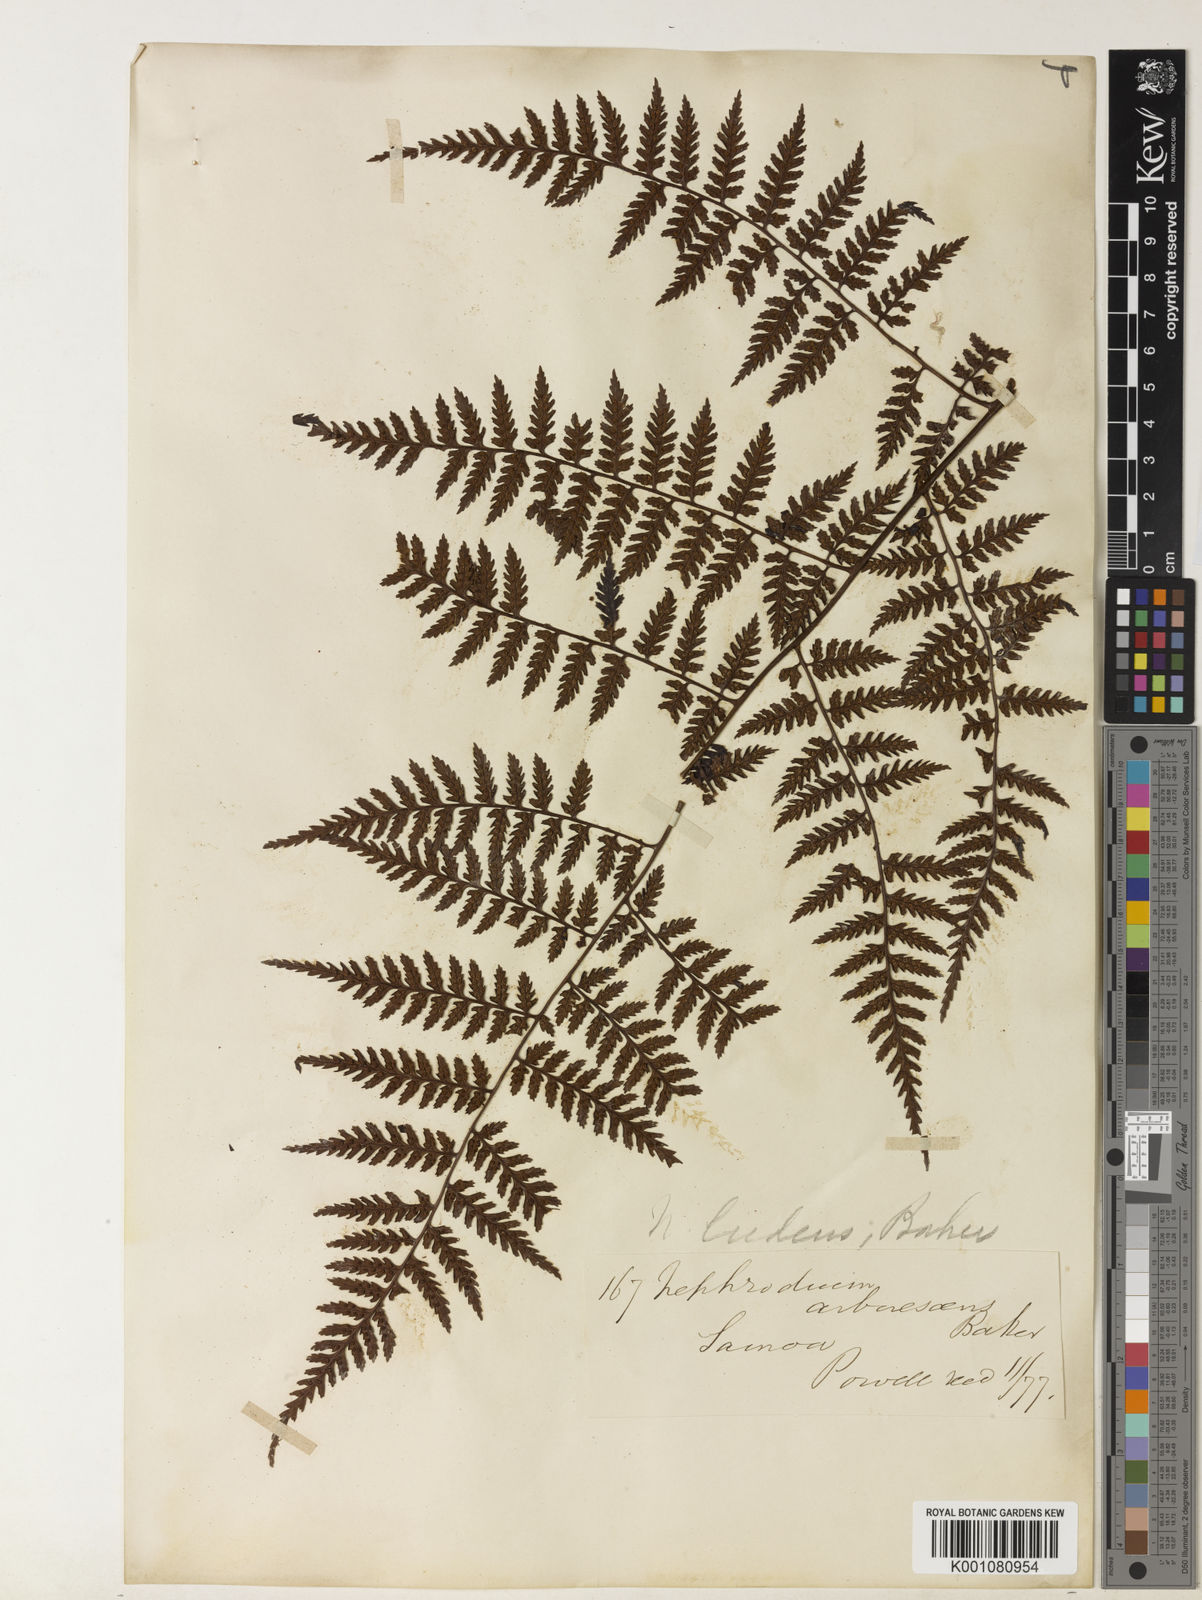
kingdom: Plantae
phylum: Tracheophyta
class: Polypodiopsida
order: Polypodiales
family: Dryopteridaceae
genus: Dryopteris
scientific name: Dryopteris arborescens
